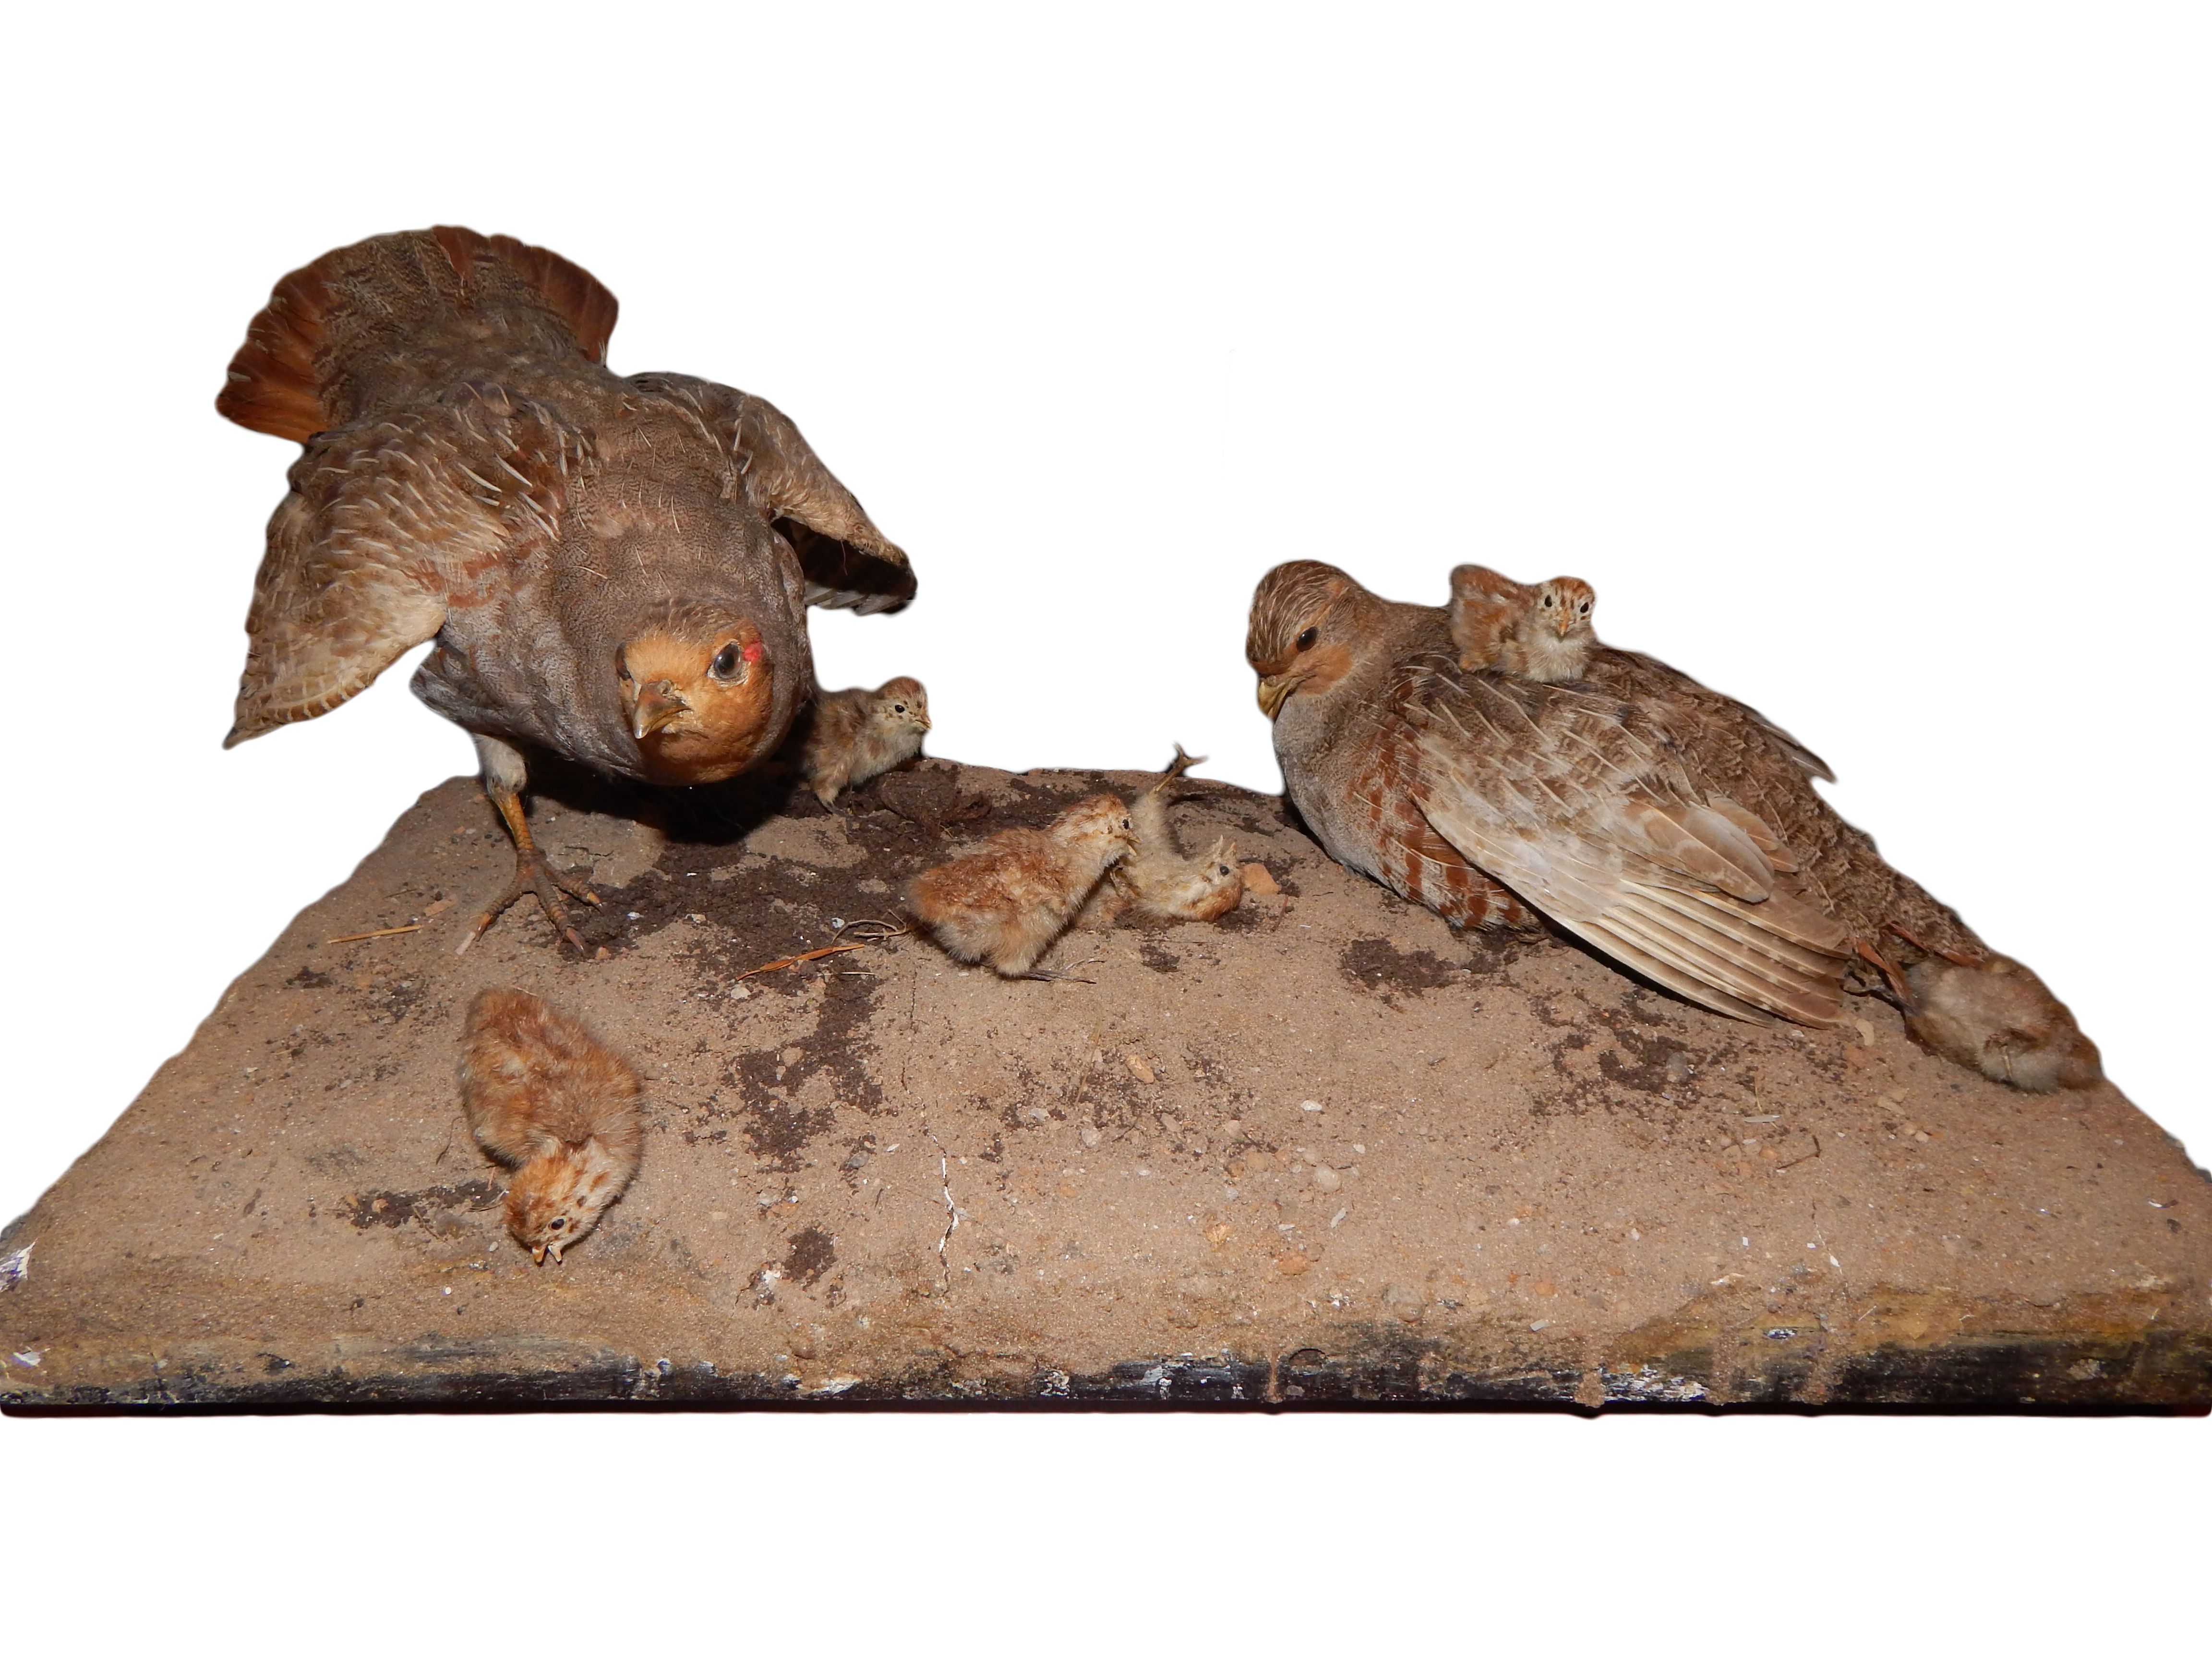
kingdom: Animalia
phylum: Chordata
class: Aves
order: Galliformes
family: Phasianidae
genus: Perdix
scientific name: Perdix perdix
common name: Grey partridge
